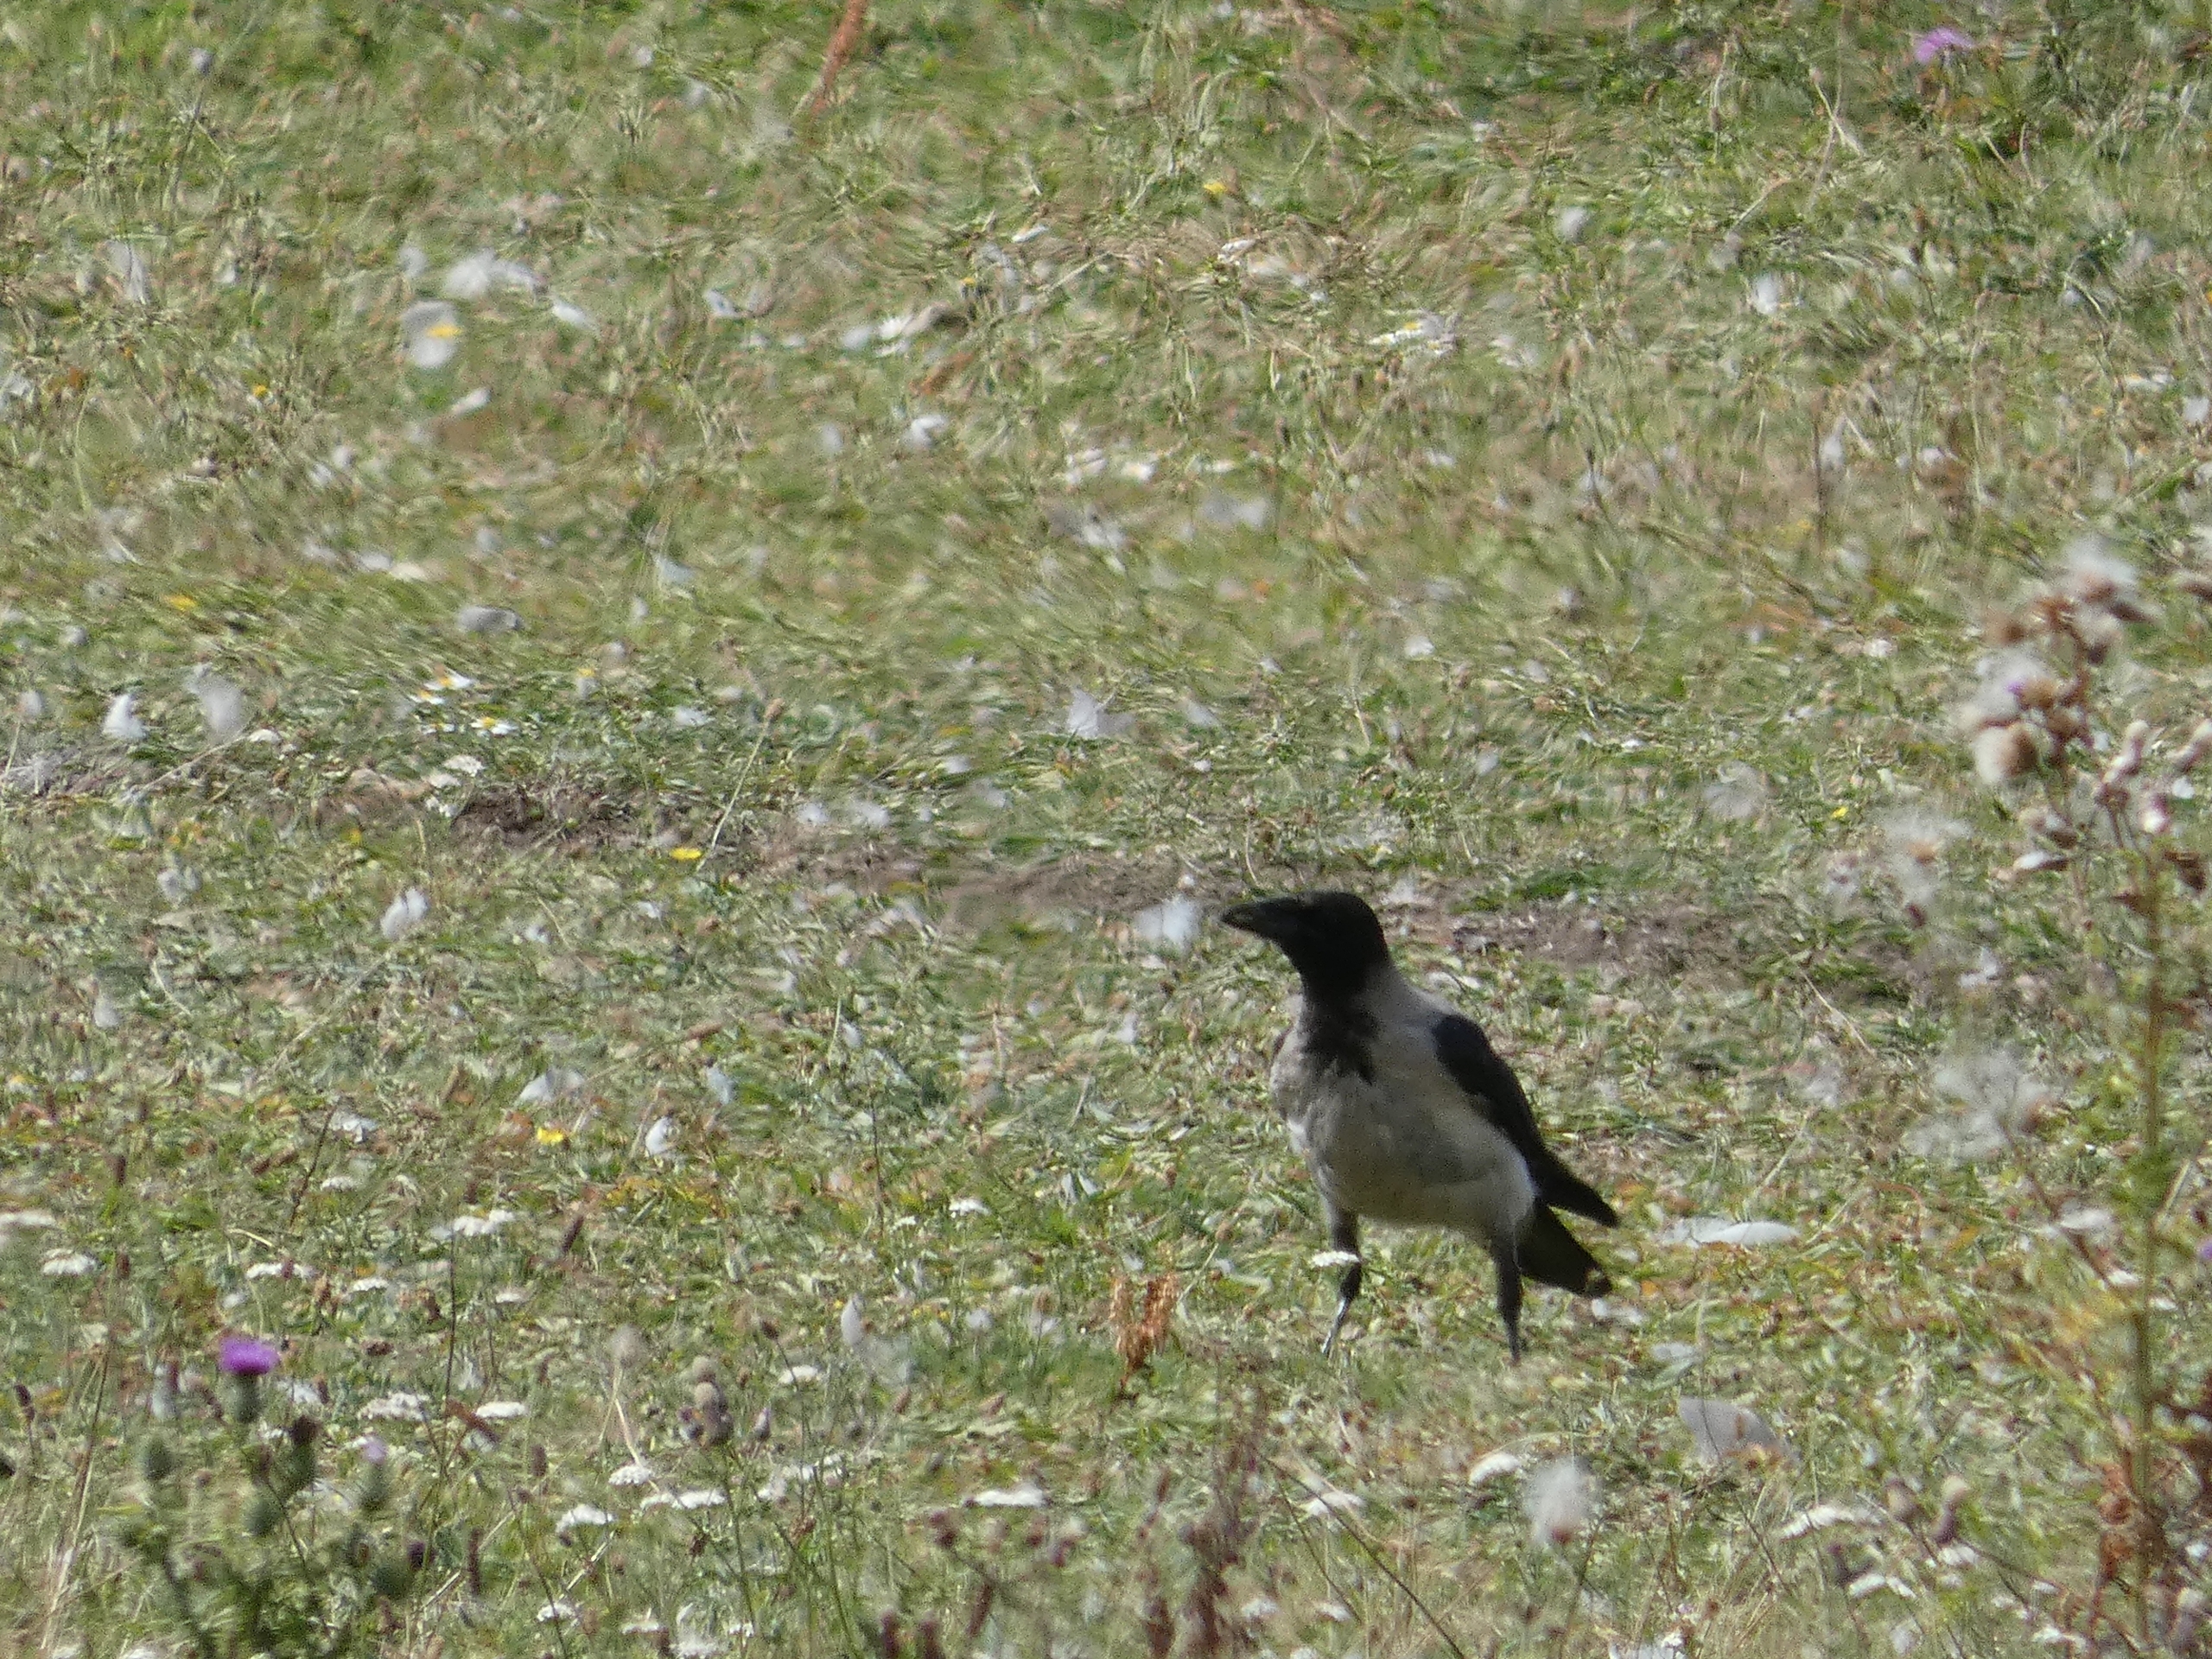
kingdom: Animalia
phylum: Chordata
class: Aves
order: Passeriformes
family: Corvidae
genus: Corvus
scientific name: Corvus cornix
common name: Gråkrage
